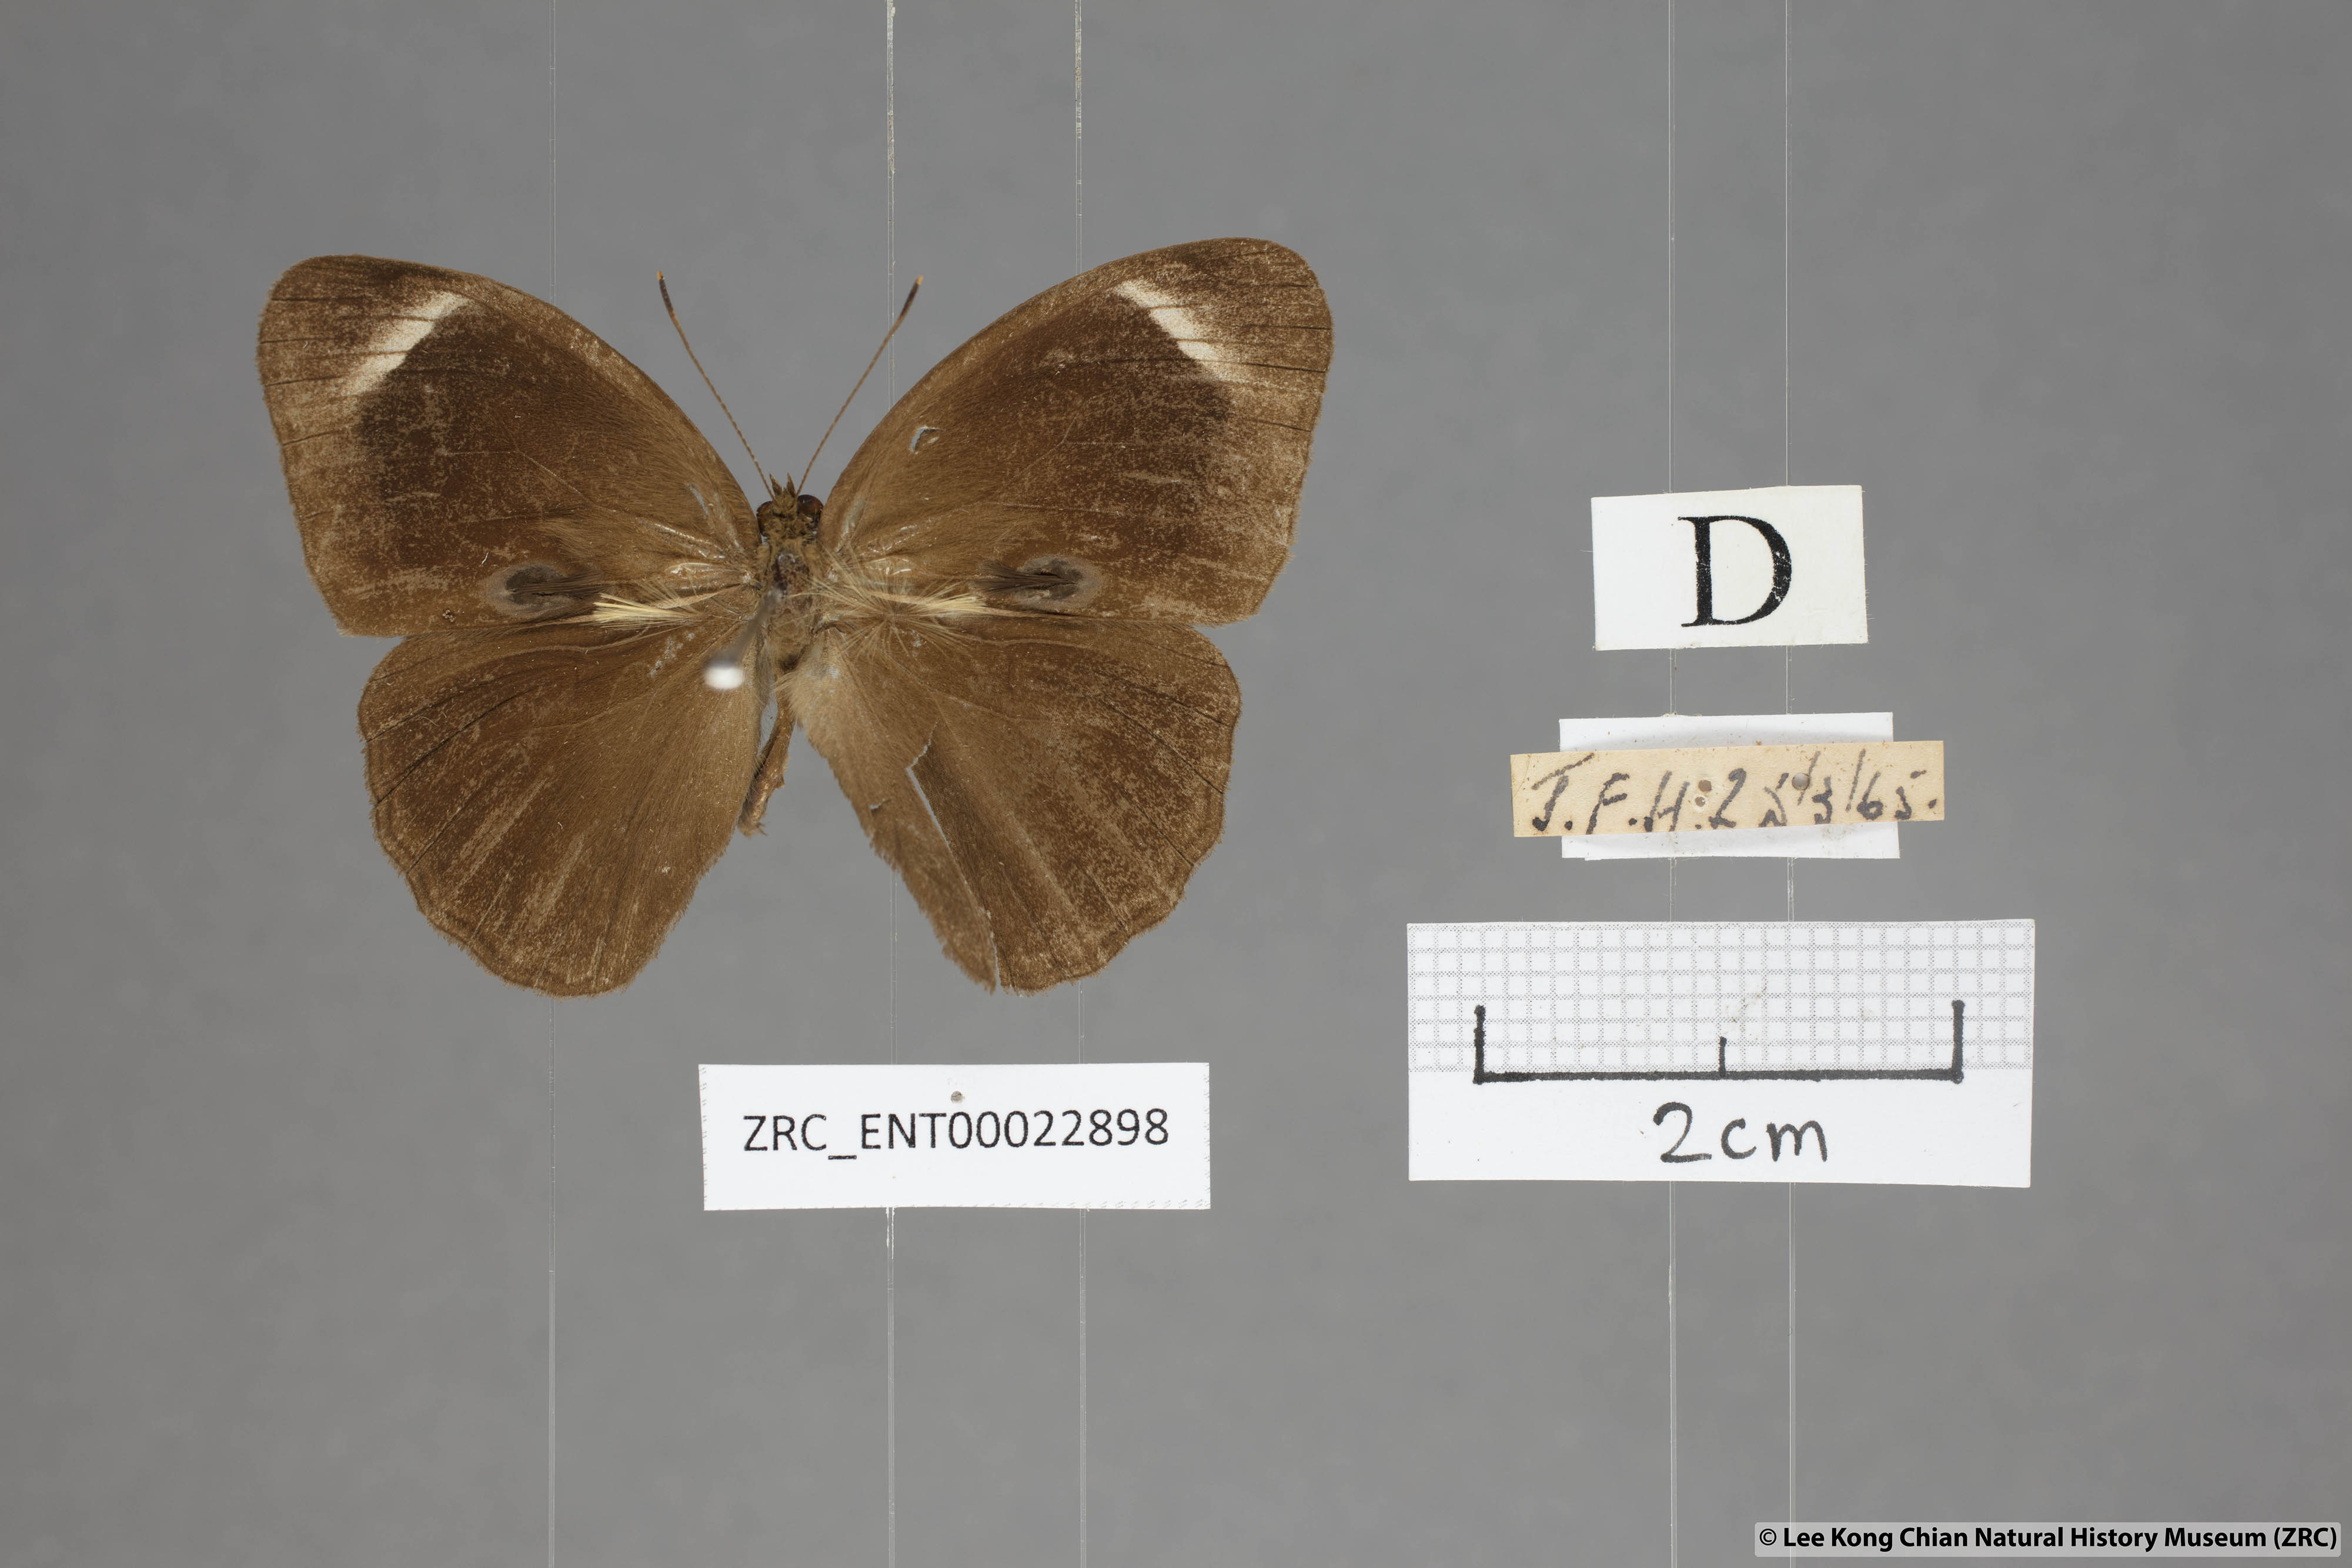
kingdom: Animalia
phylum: Arthropoda
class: Insecta
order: Lepidoptera
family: Nymphalidae
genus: Mycalesis
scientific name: Mycalesis anaxias
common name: White-bar bushbrown
